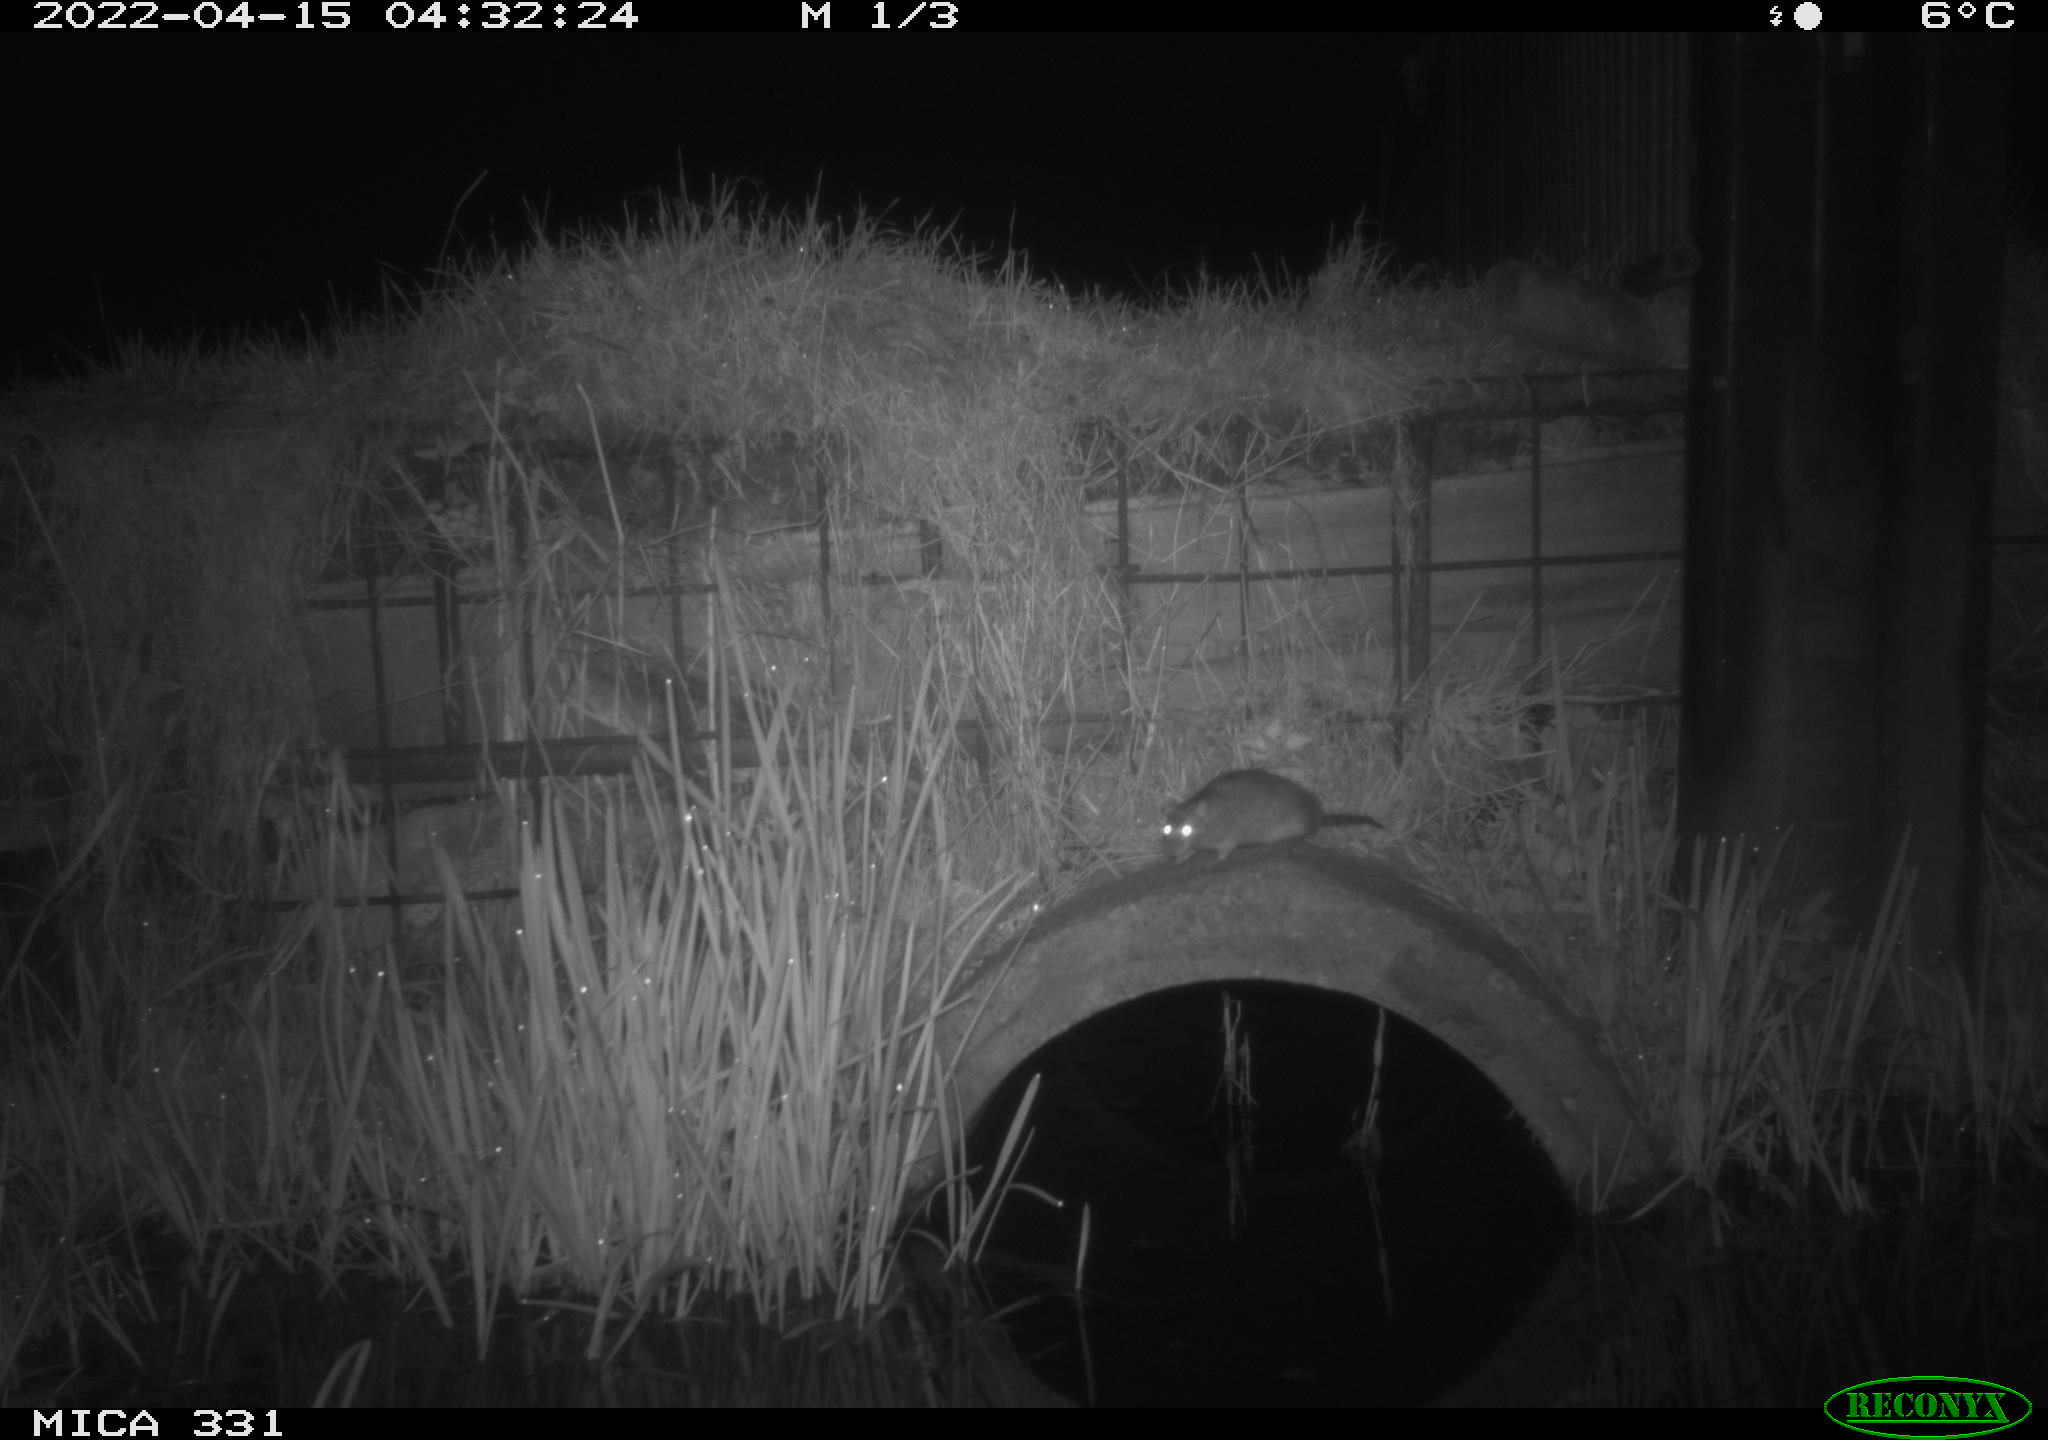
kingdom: Animalia
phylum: Chordata
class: Mammalia
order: Rodentia
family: Muridae
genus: Rattus
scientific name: Rattus norvegicus
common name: Brown rat
